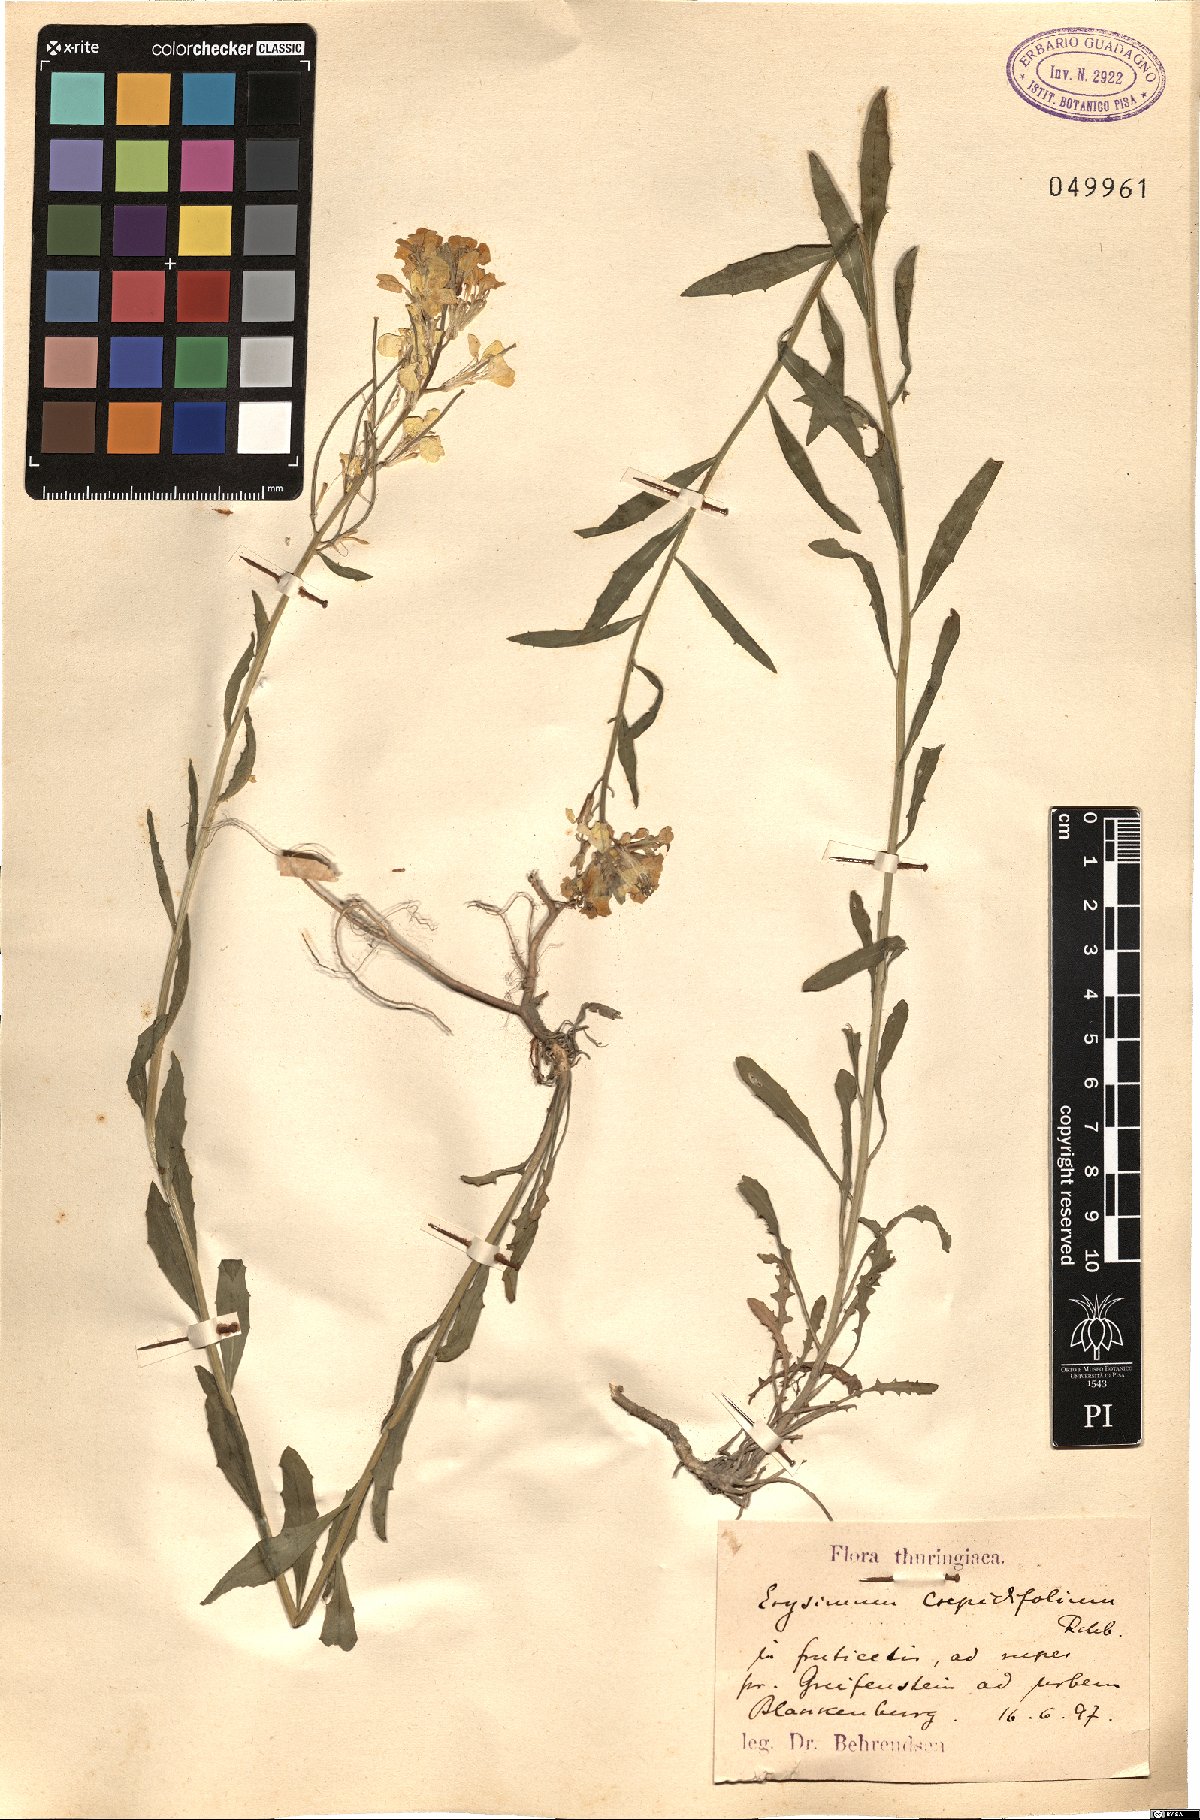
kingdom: Plantae
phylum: Tracheophyta
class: Magnoliopsida
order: Brassicales
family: Brassicaceae
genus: Erysimum
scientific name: Erysimum crepidifolium
